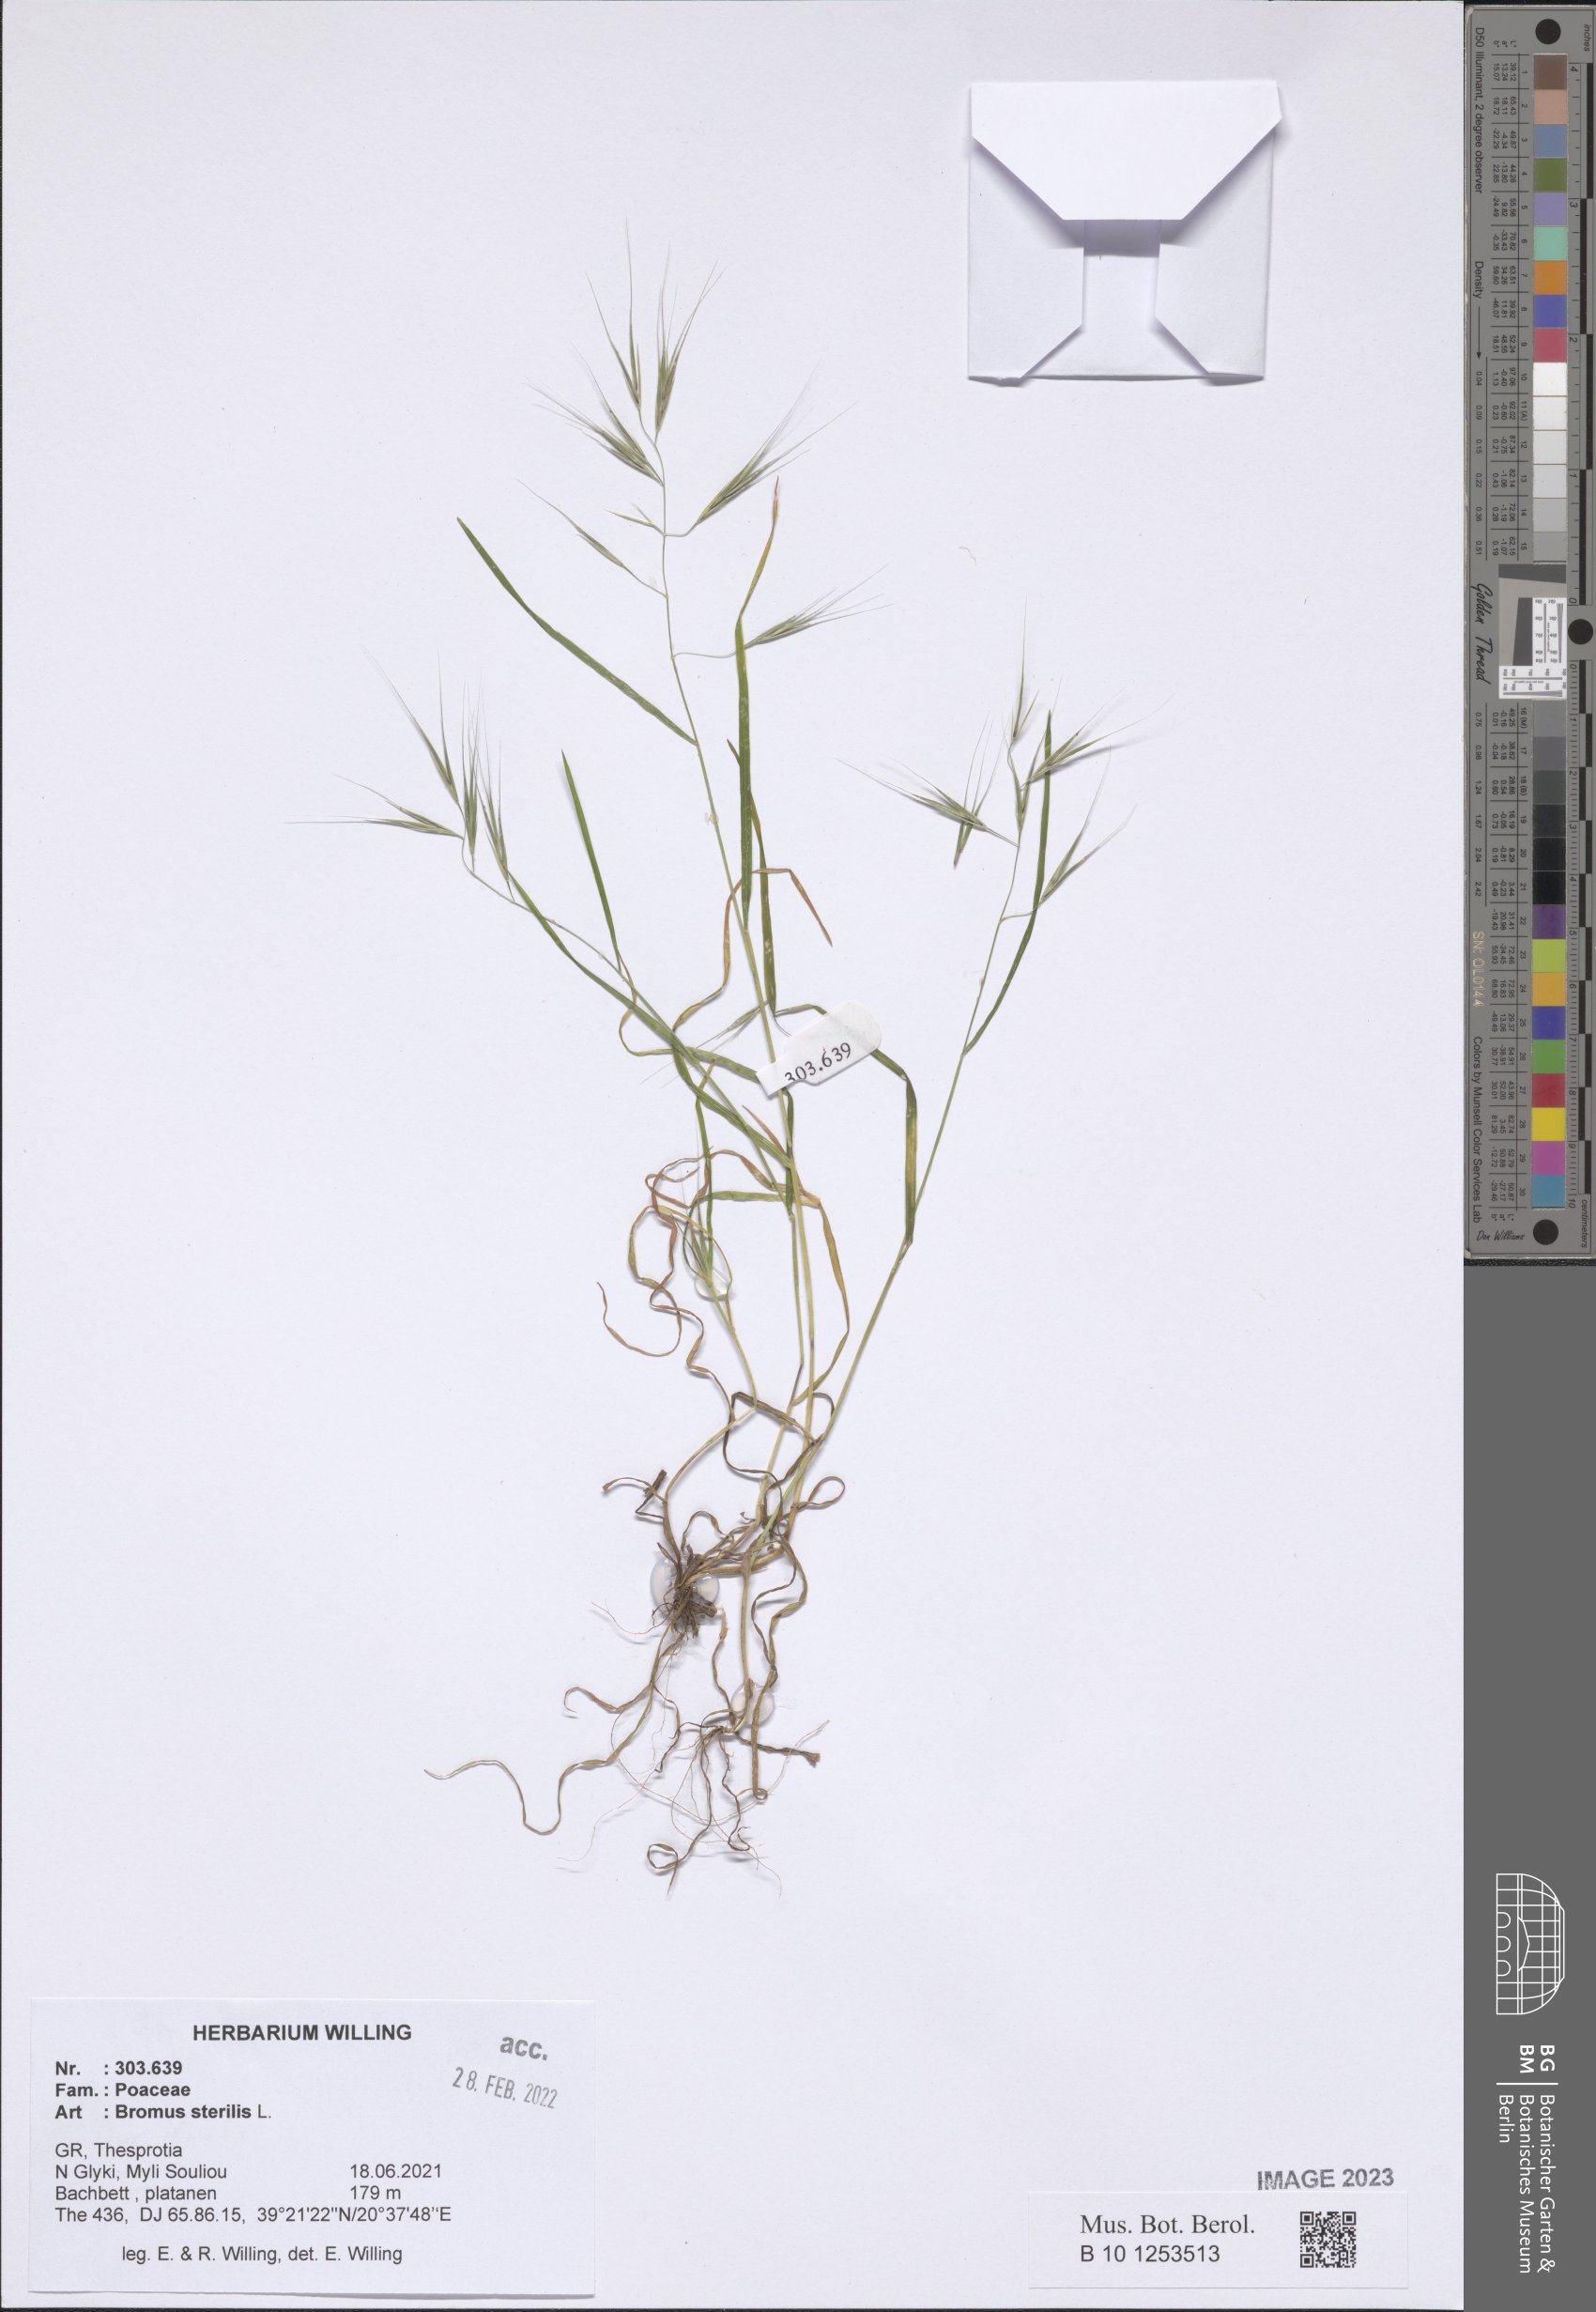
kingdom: Plantae
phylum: Tracheophyta
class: Liliopsida
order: Poales
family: Poaceae
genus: Bromus
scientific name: Bromus sterilis
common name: Poverty brome
